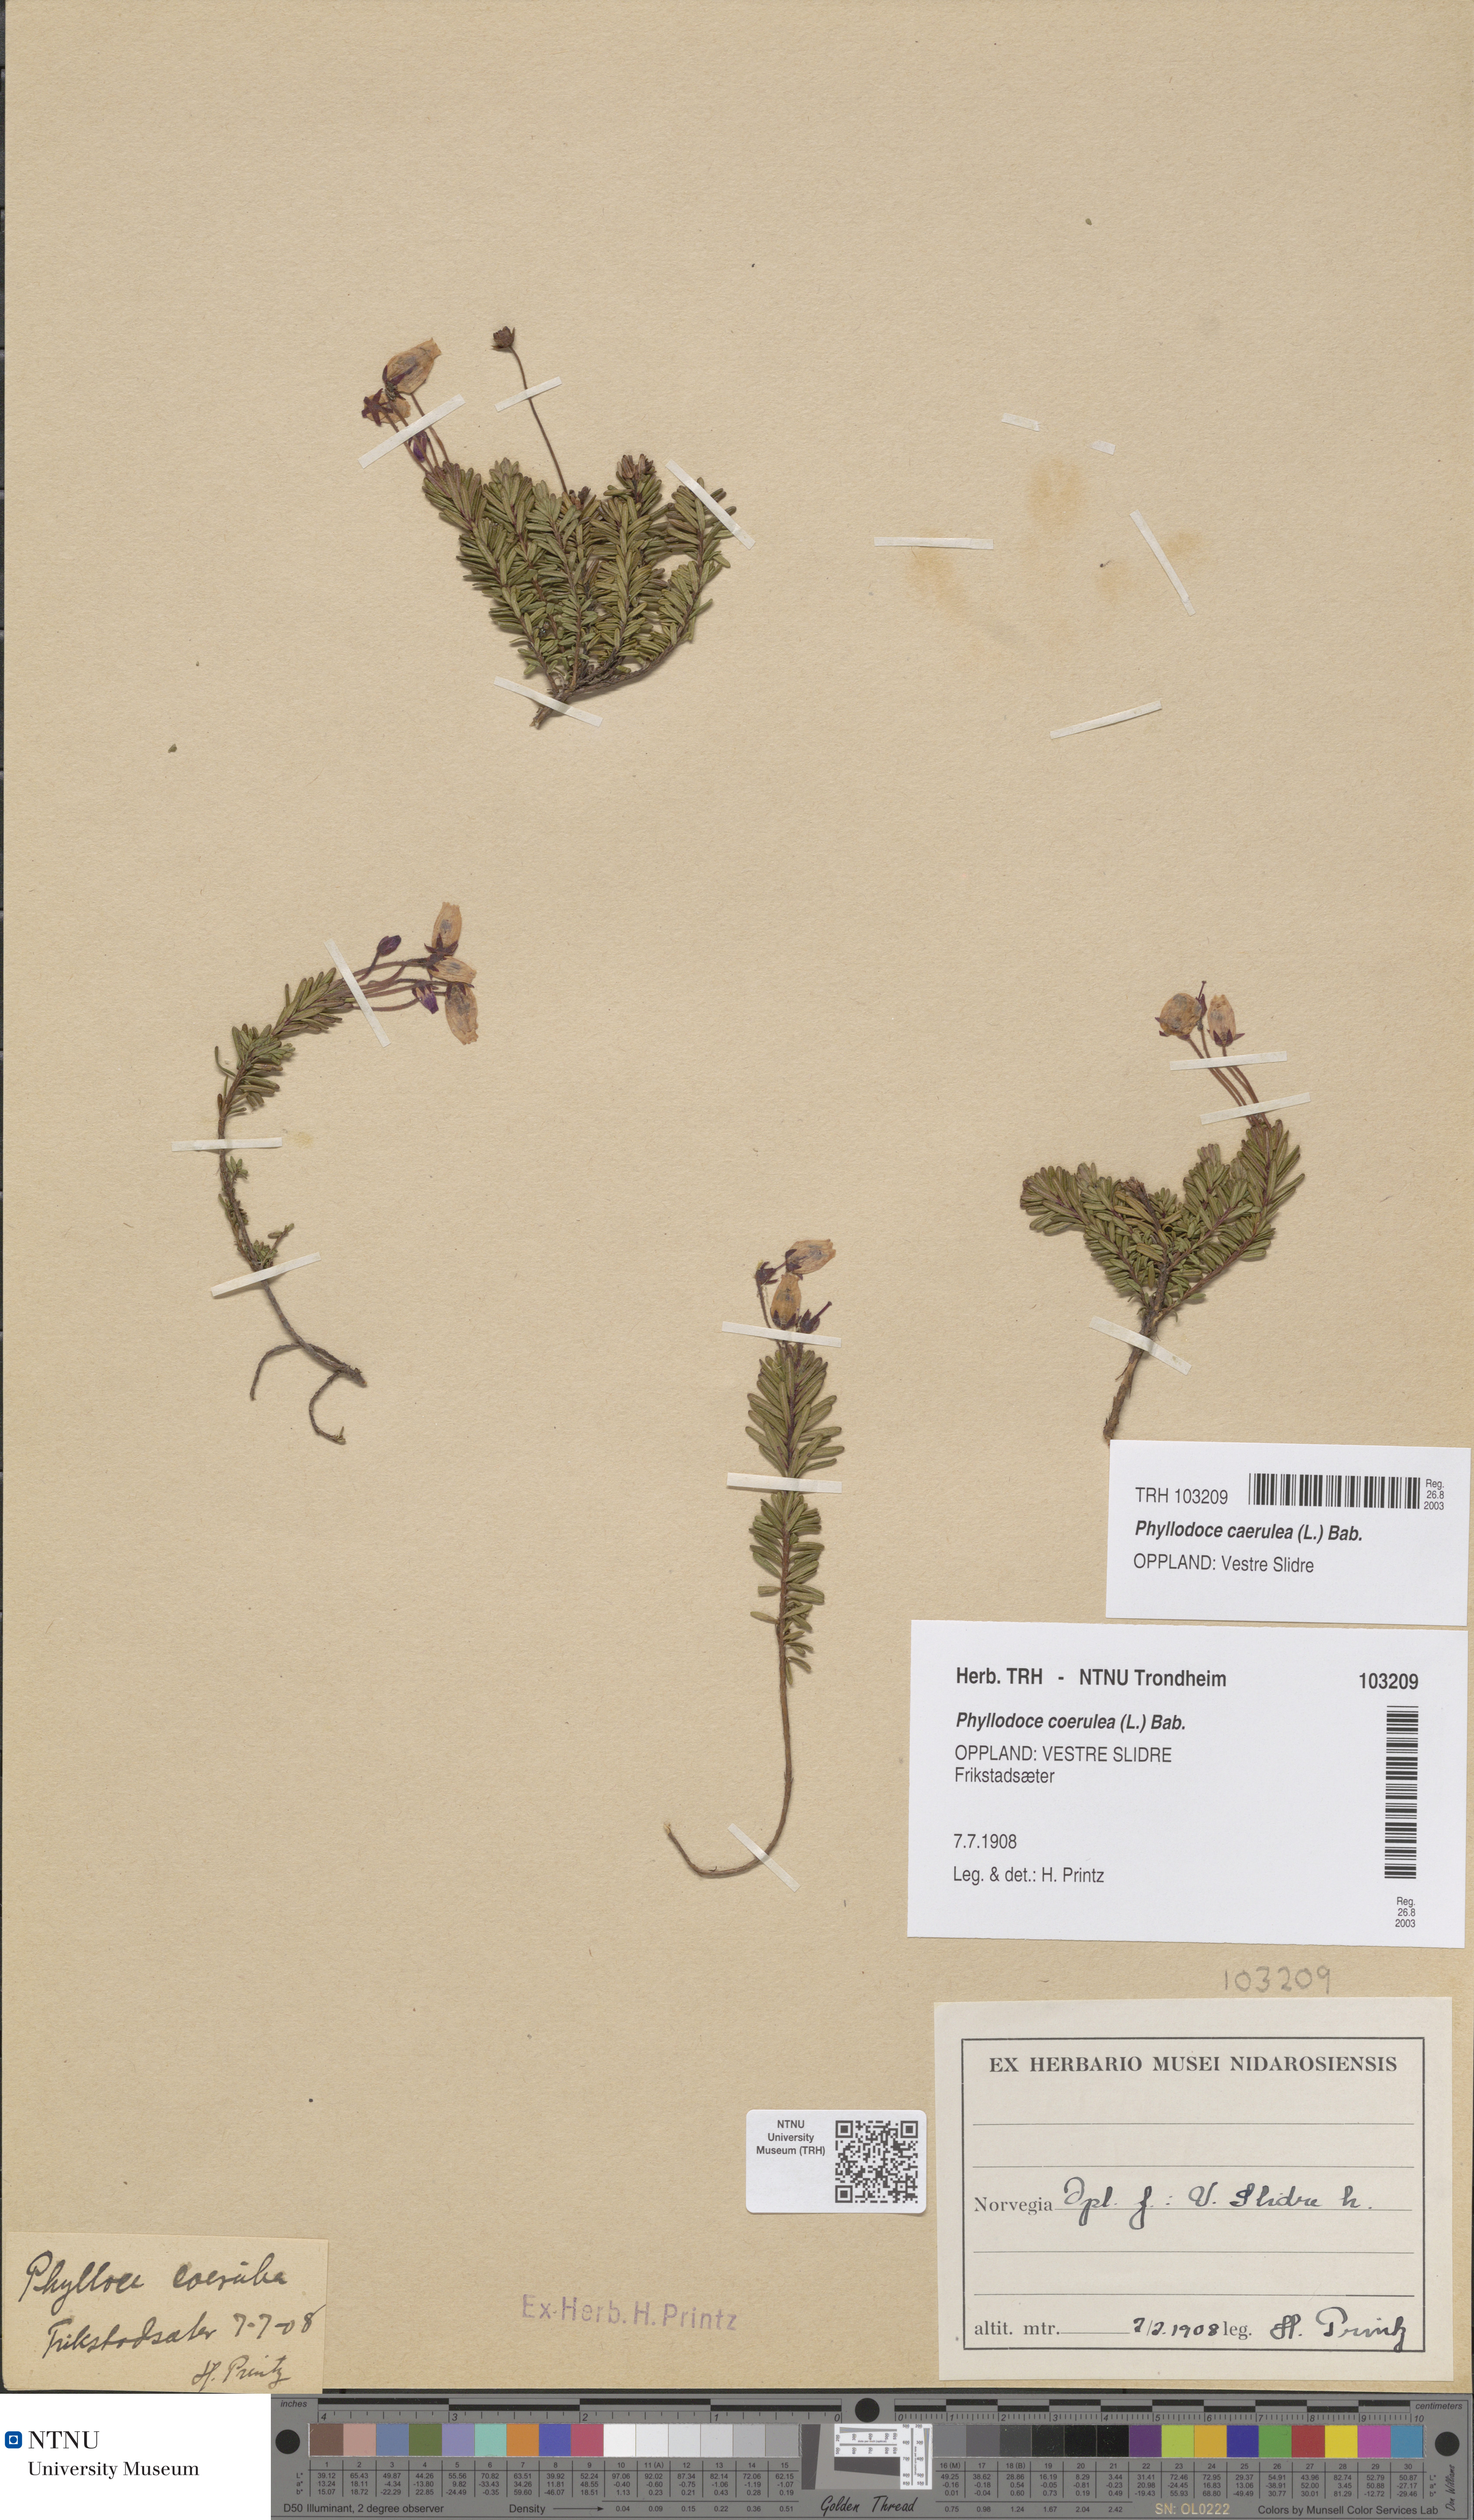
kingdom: Plantae
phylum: Tracheophyta
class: Magnoliopsida
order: Ericales
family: Ericaceae
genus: Phyllodoce
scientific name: Phyllodoce caerulea
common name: Blue heath
